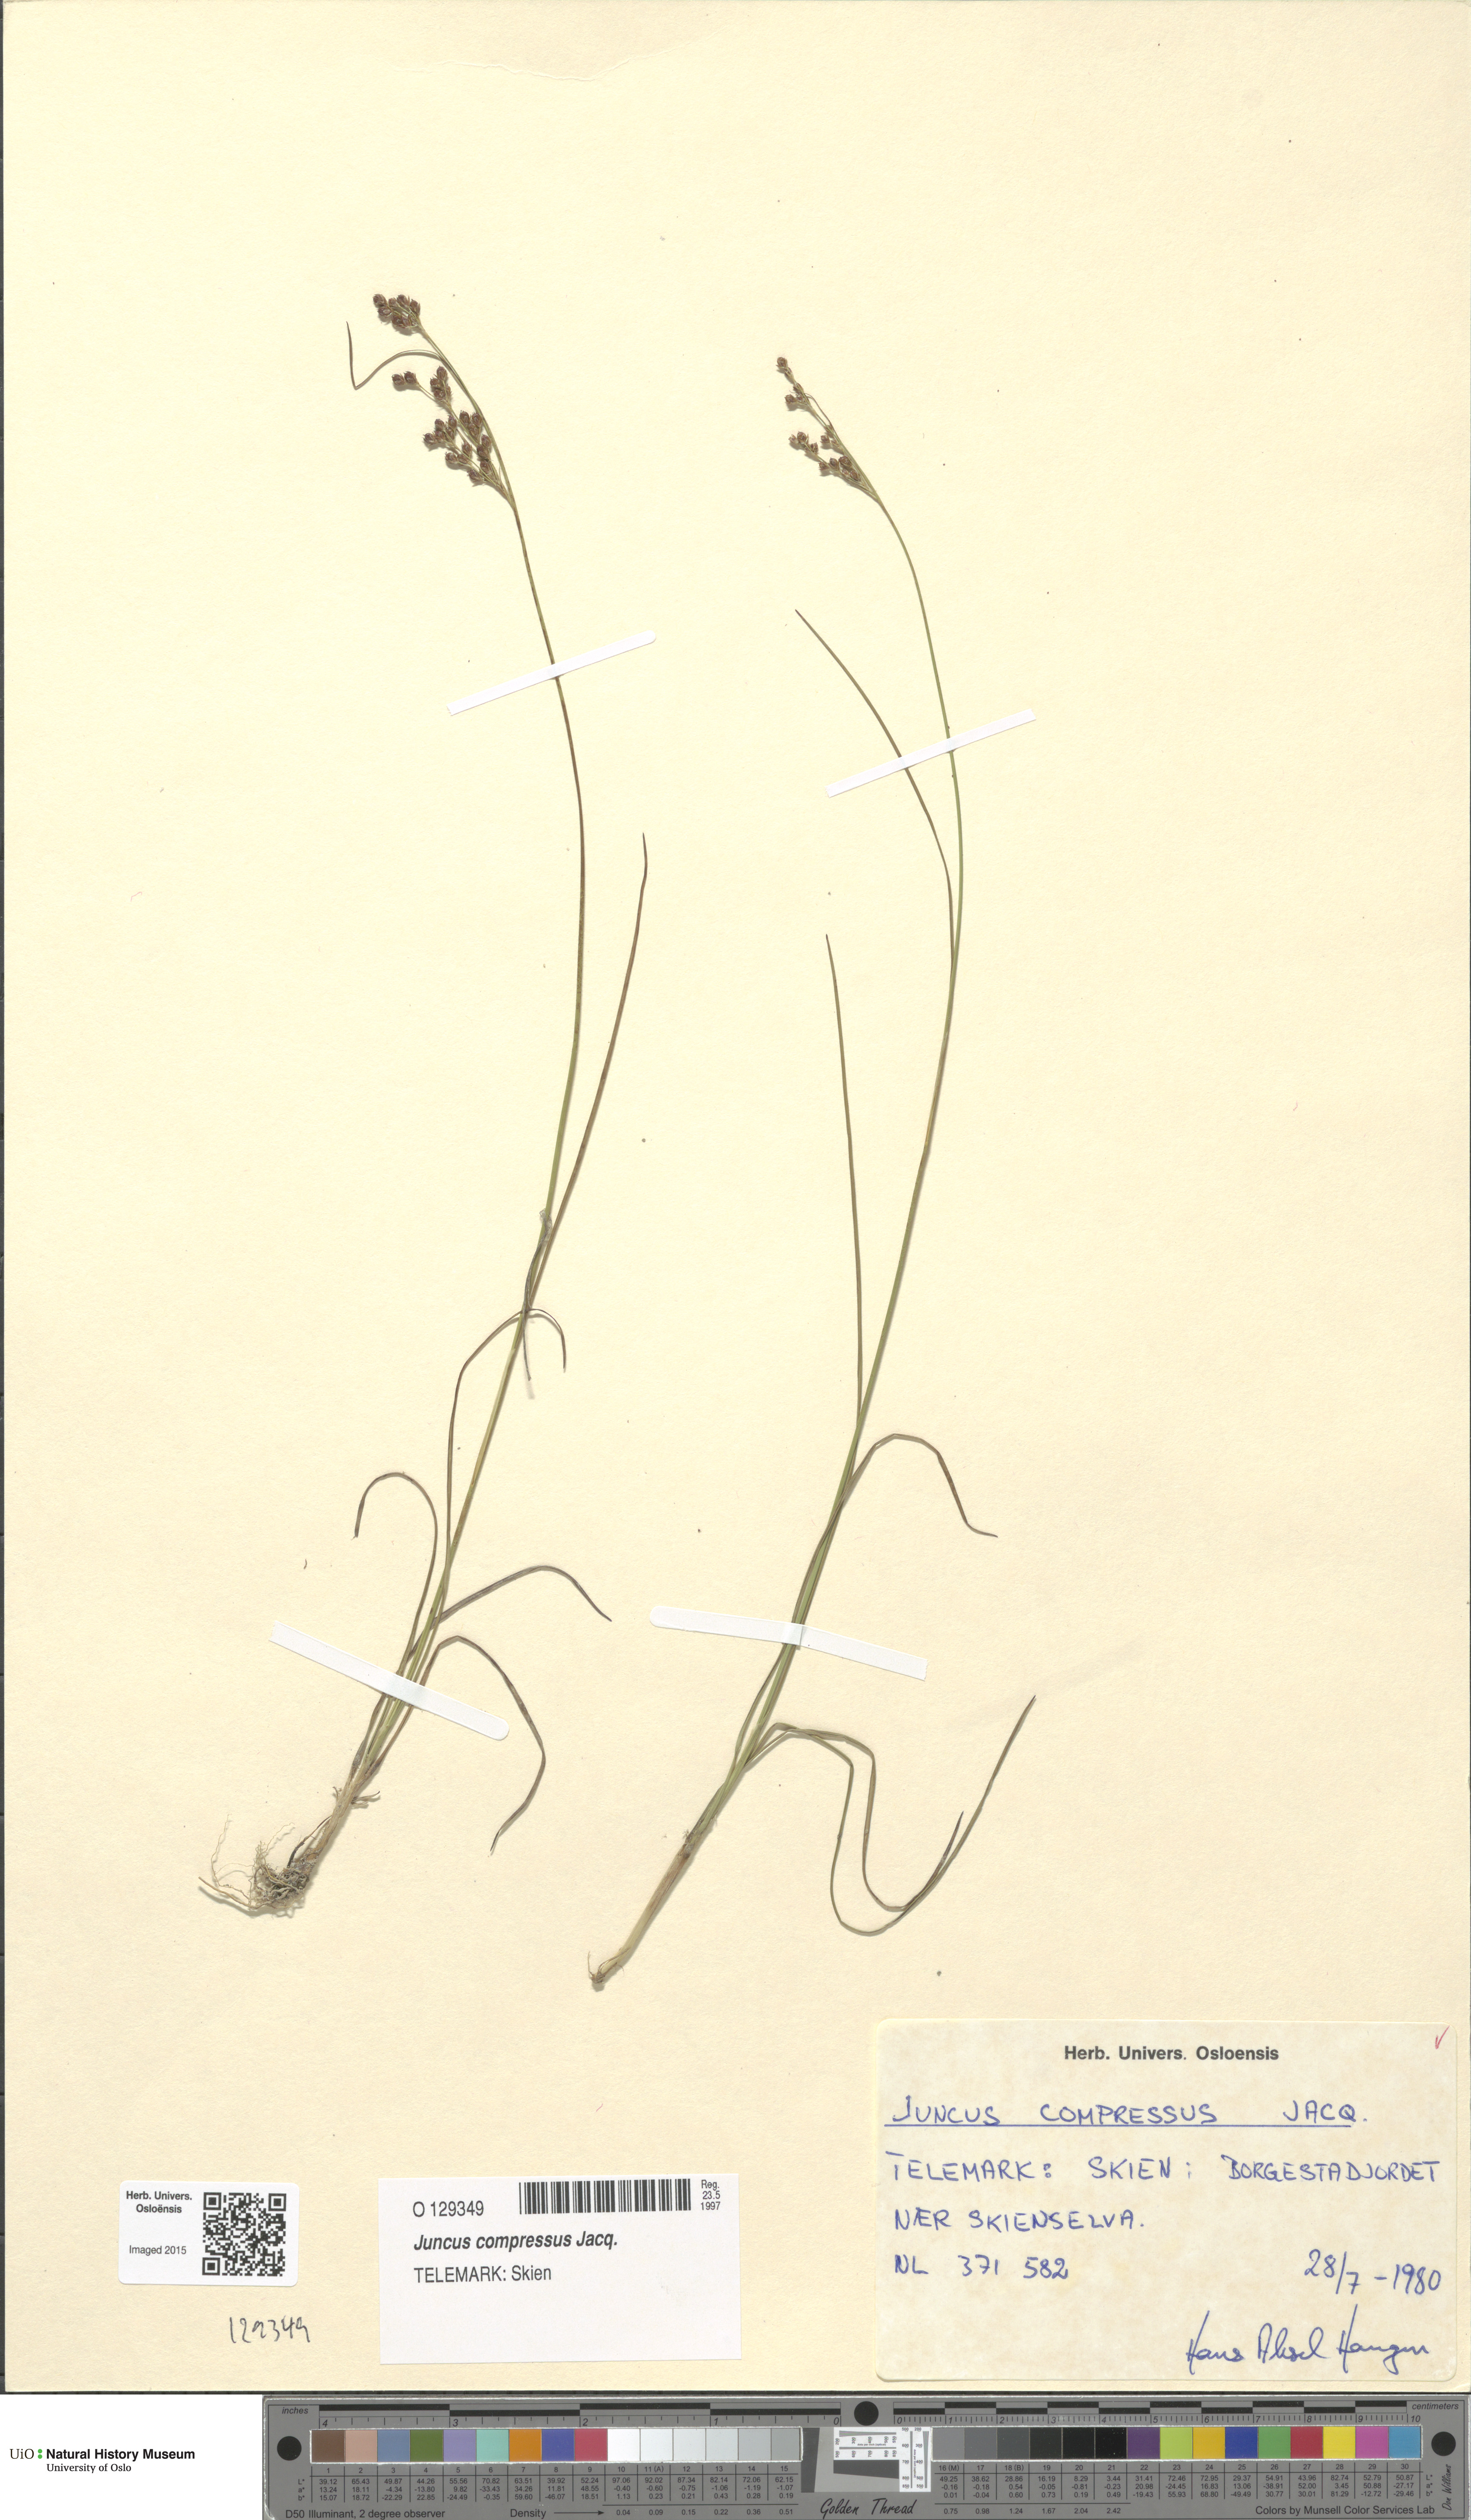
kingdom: Plantae
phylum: Tracheophyta
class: Liliopsida
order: Poales
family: Juncaceae
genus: Juncus
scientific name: Juncus compressus
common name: Round-fruited rush
